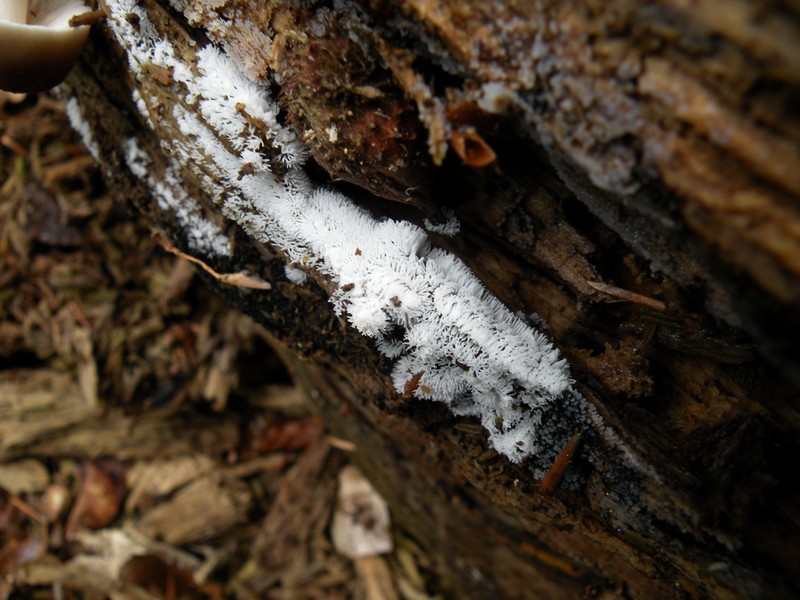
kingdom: Protozoa
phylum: Mycetozoa
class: Protosteliomycetes
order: Ceratiomyxales
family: Ceratiomyxaceae
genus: Ceratiomyxa
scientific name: Ceratiomyxa fruticulosa
